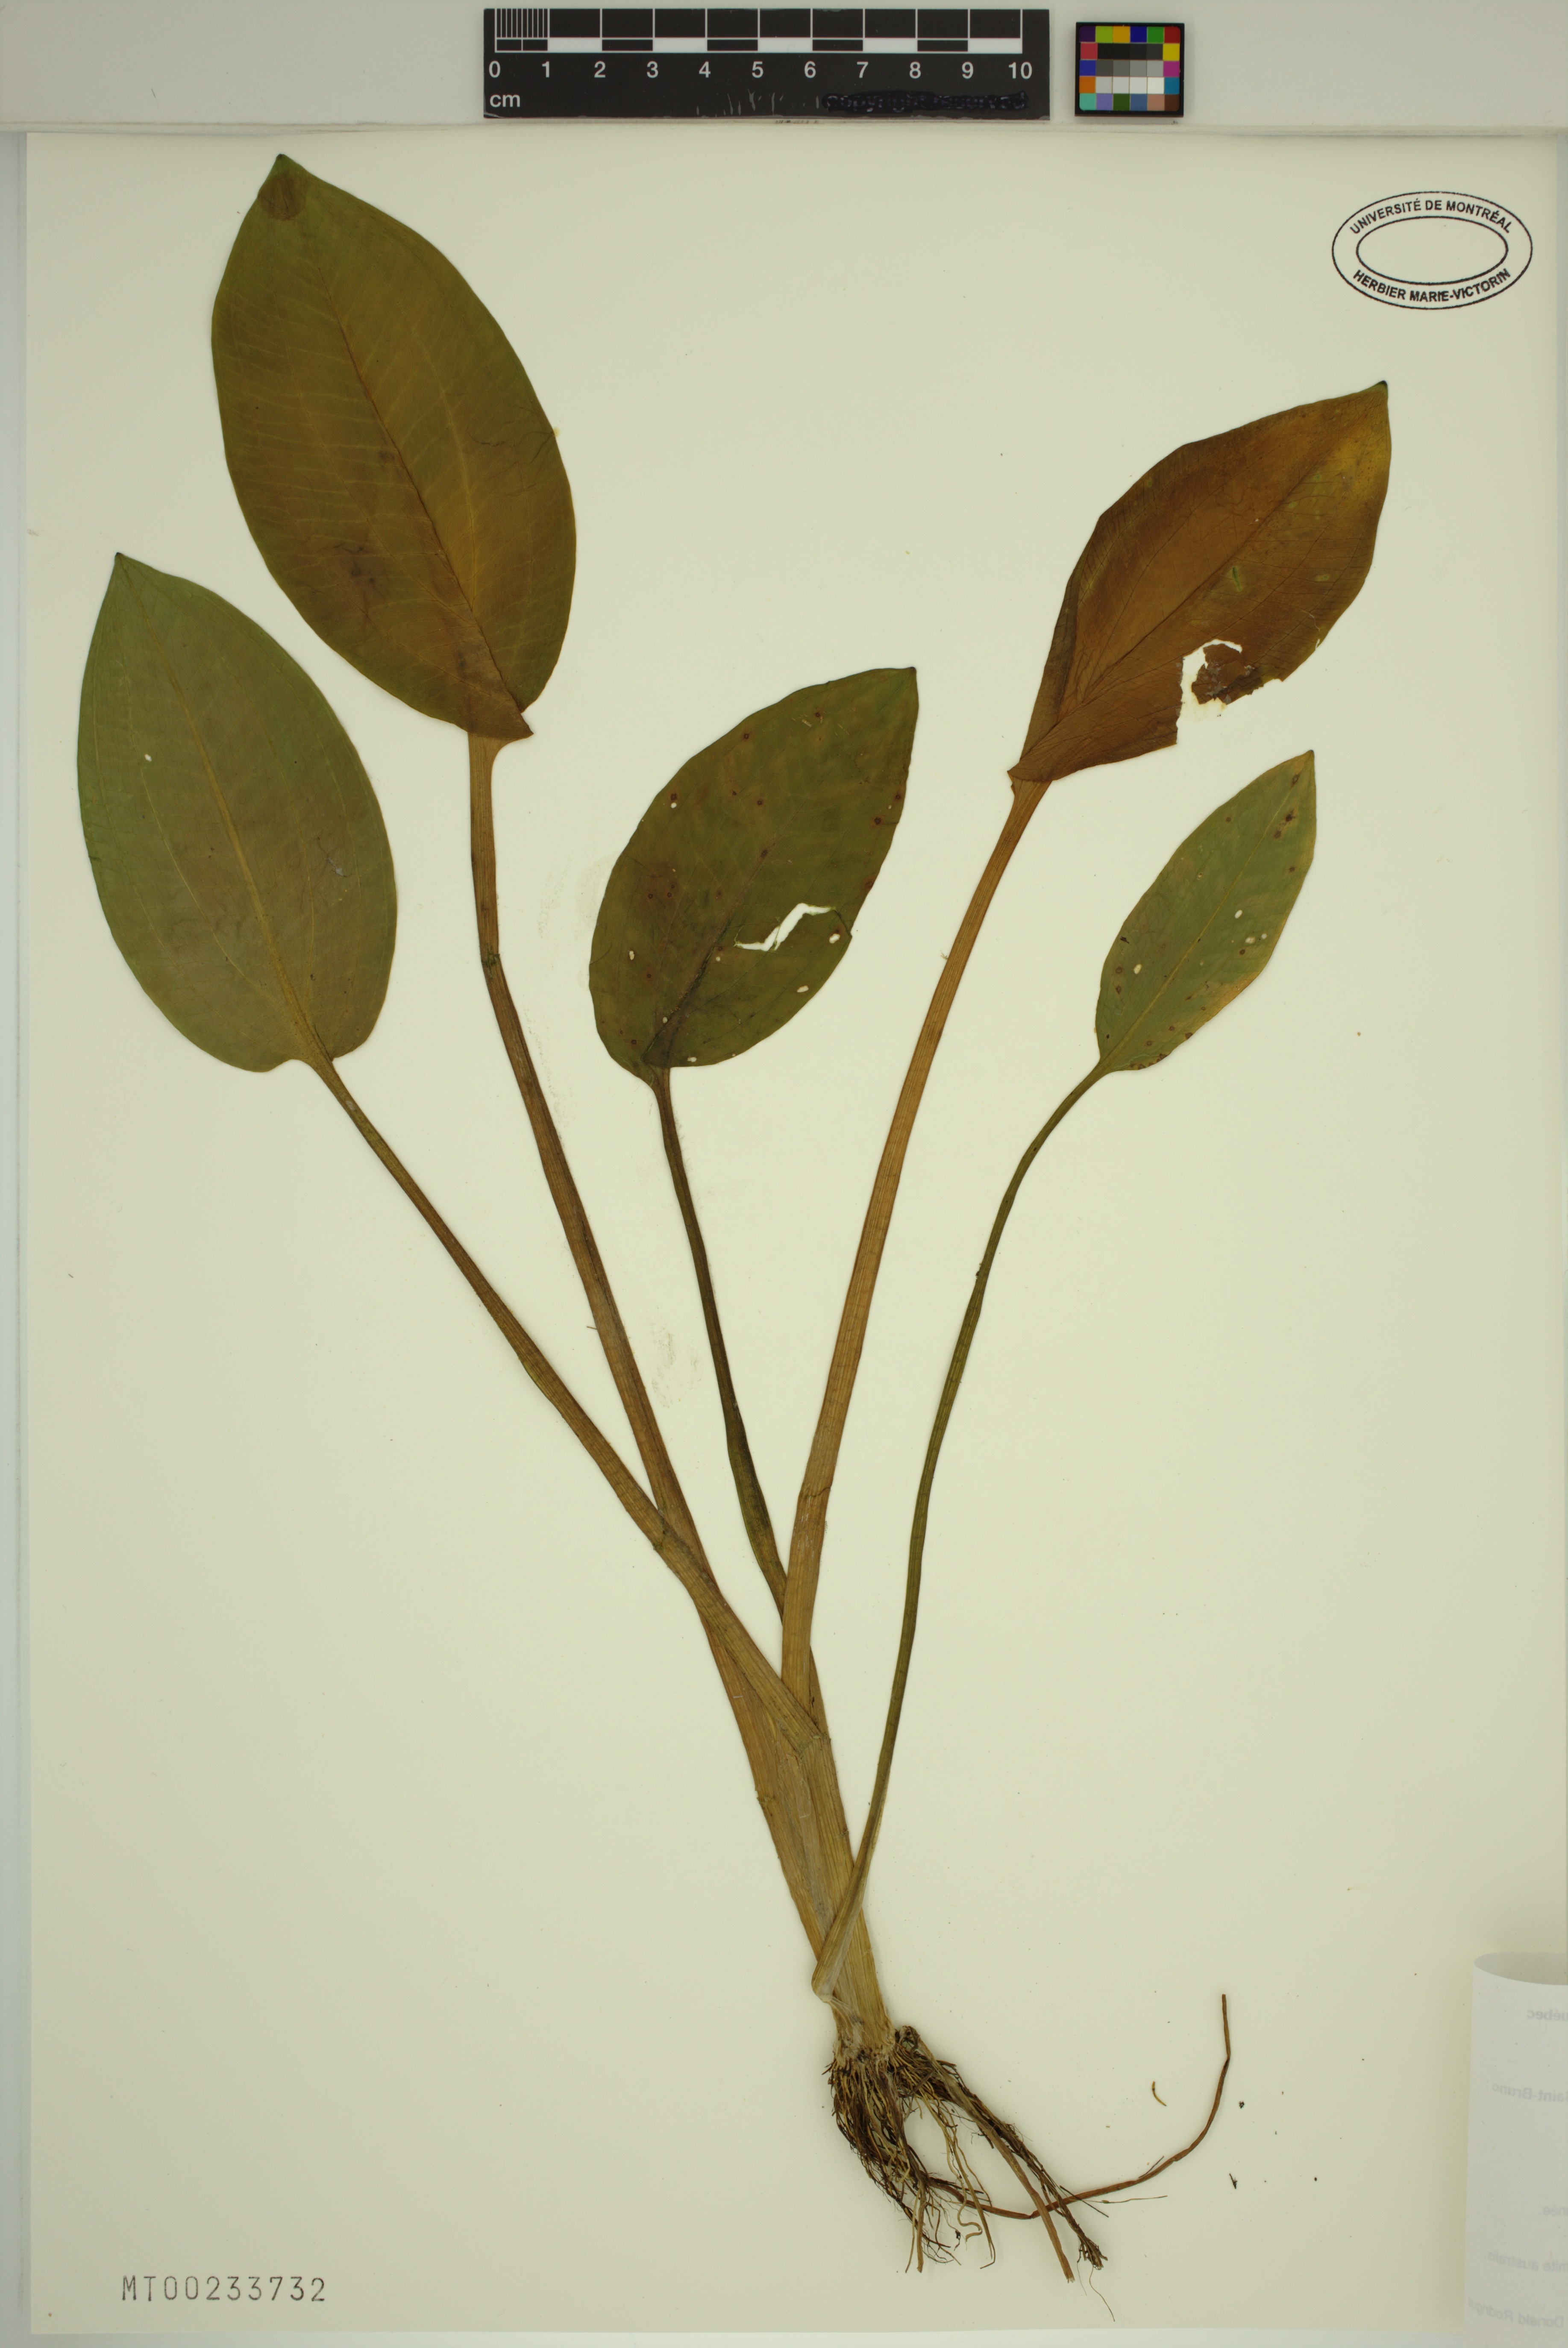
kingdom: Plantae
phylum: Tracheophyta
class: Liliopsida
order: Alismatales
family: Alismataceae
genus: Alisma
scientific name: Alisma triviale
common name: Northern water-plantain
